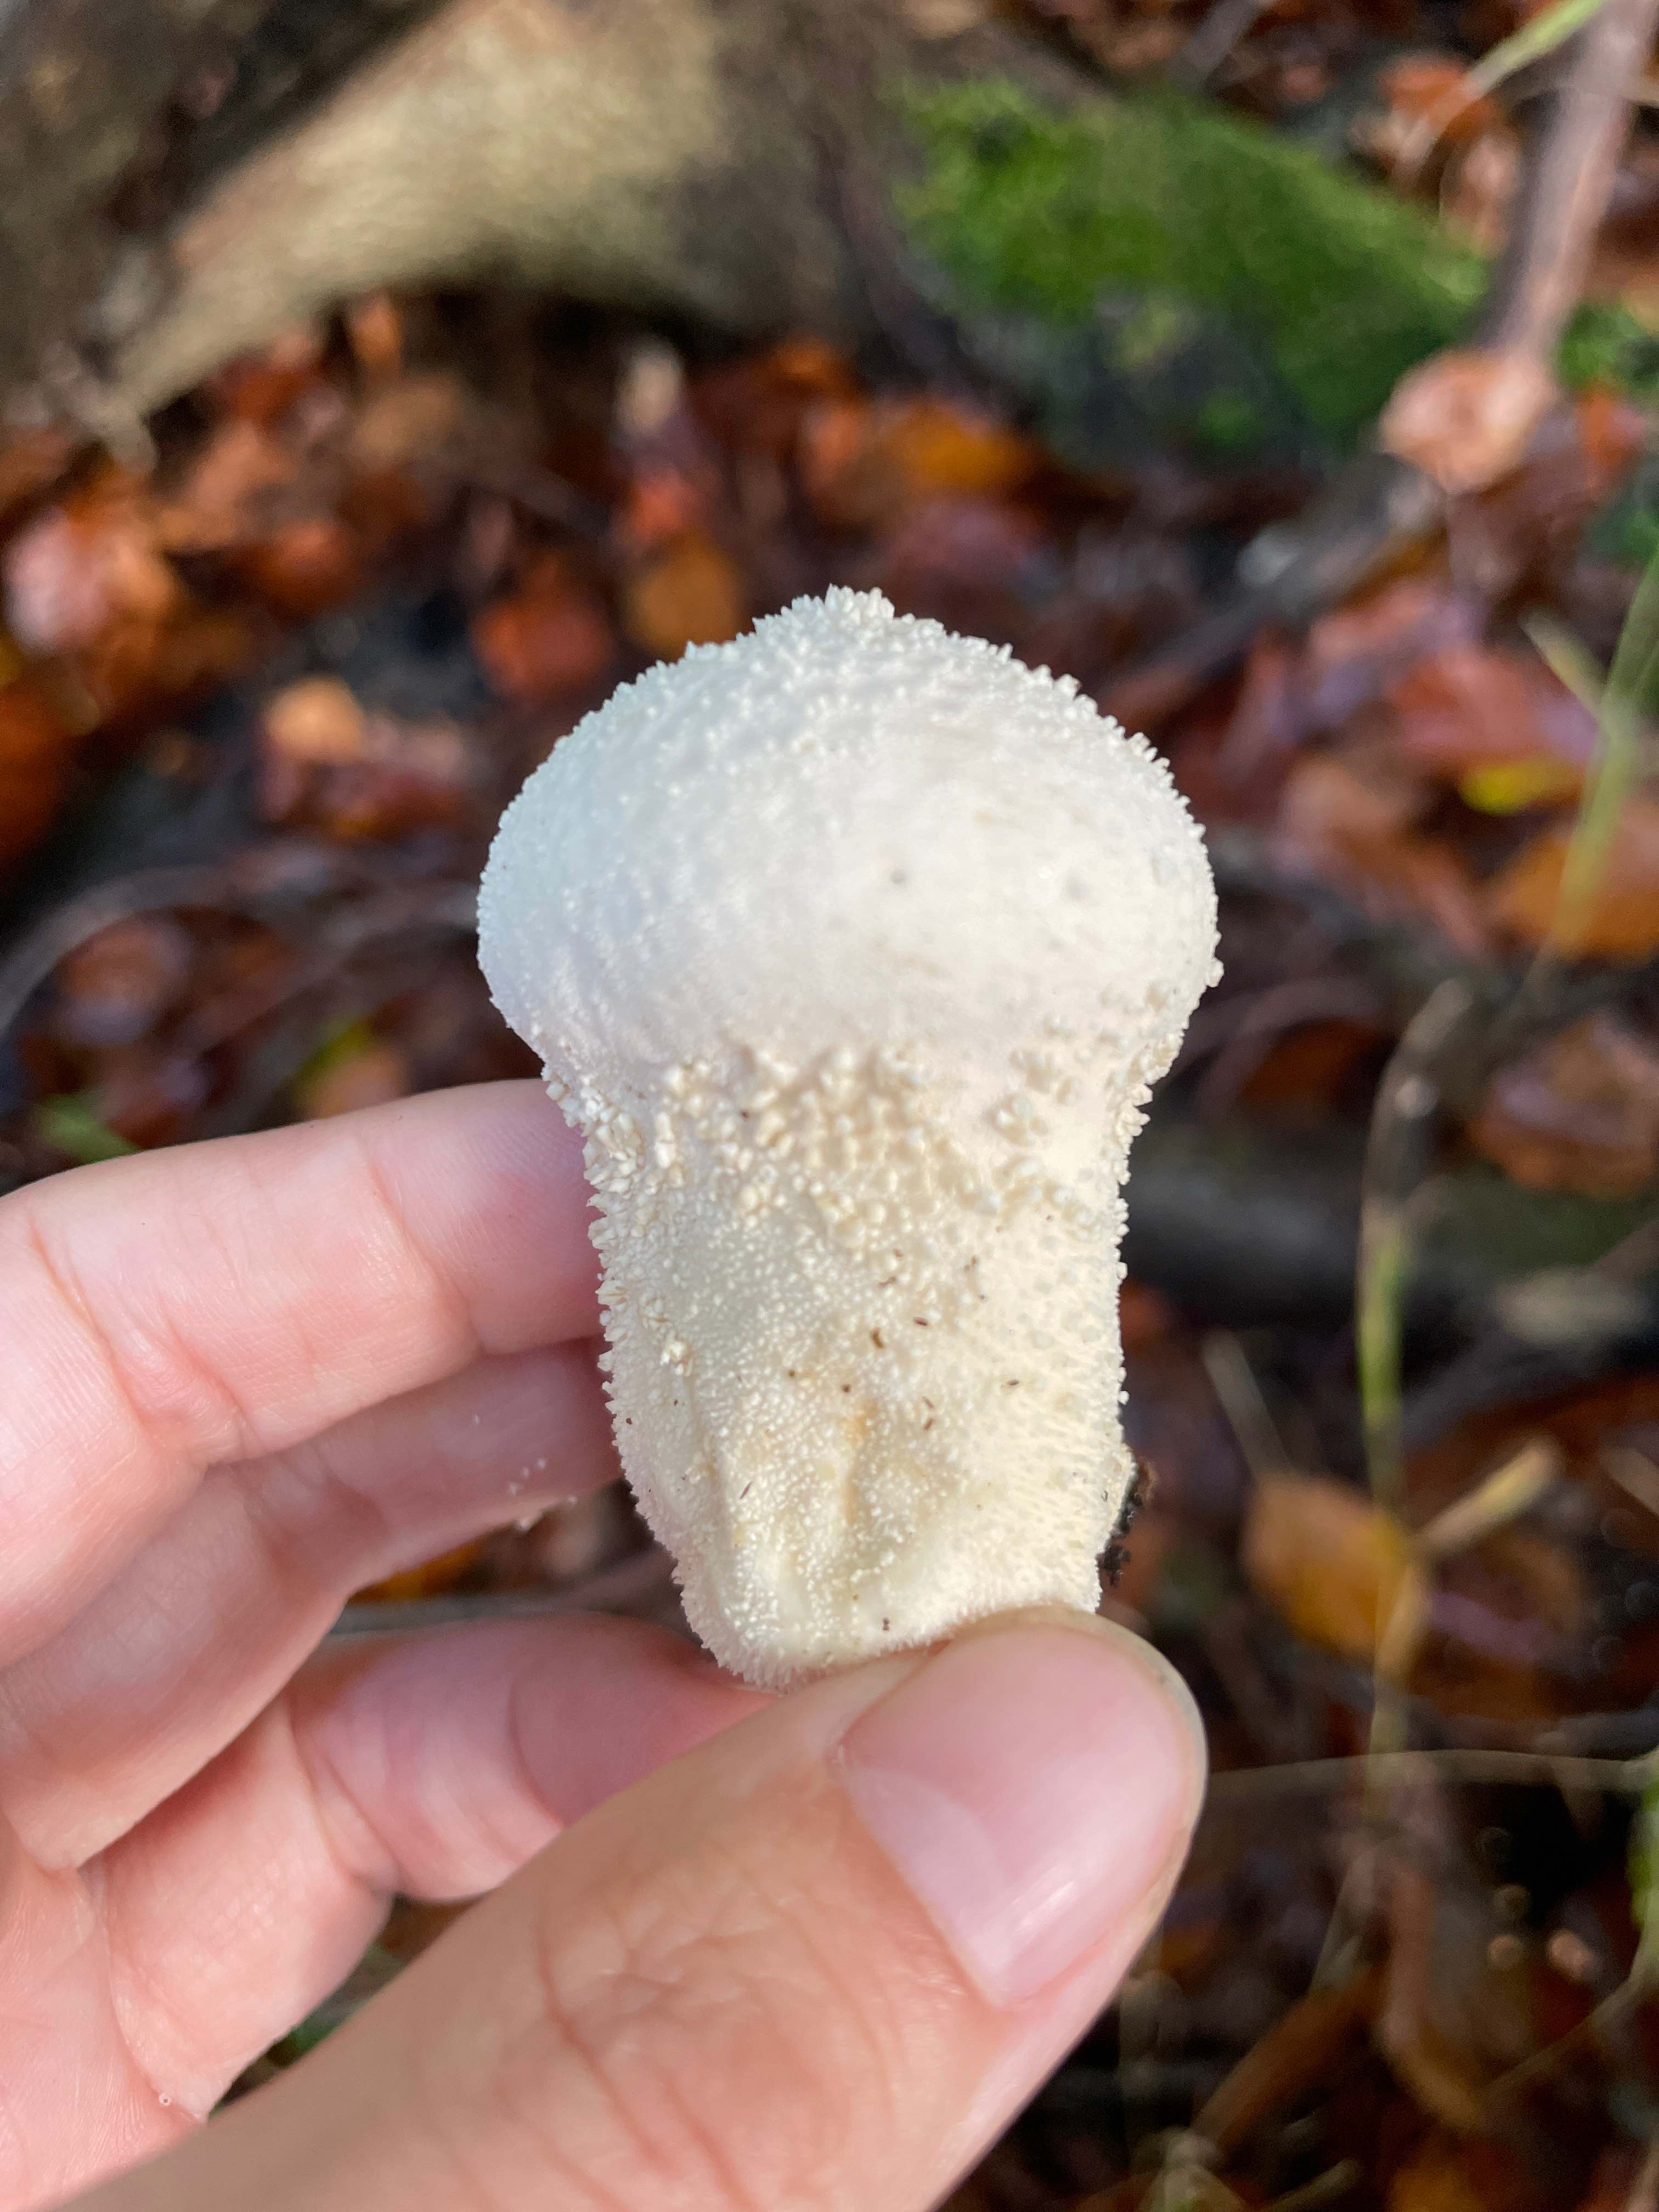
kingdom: Fungi
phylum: Basidiomycota
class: Agaricomycetes
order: Agaricales
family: Lycoperdaceae
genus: Lycoperdon
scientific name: Lycoperdon perlatum
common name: krystal-støvbold
